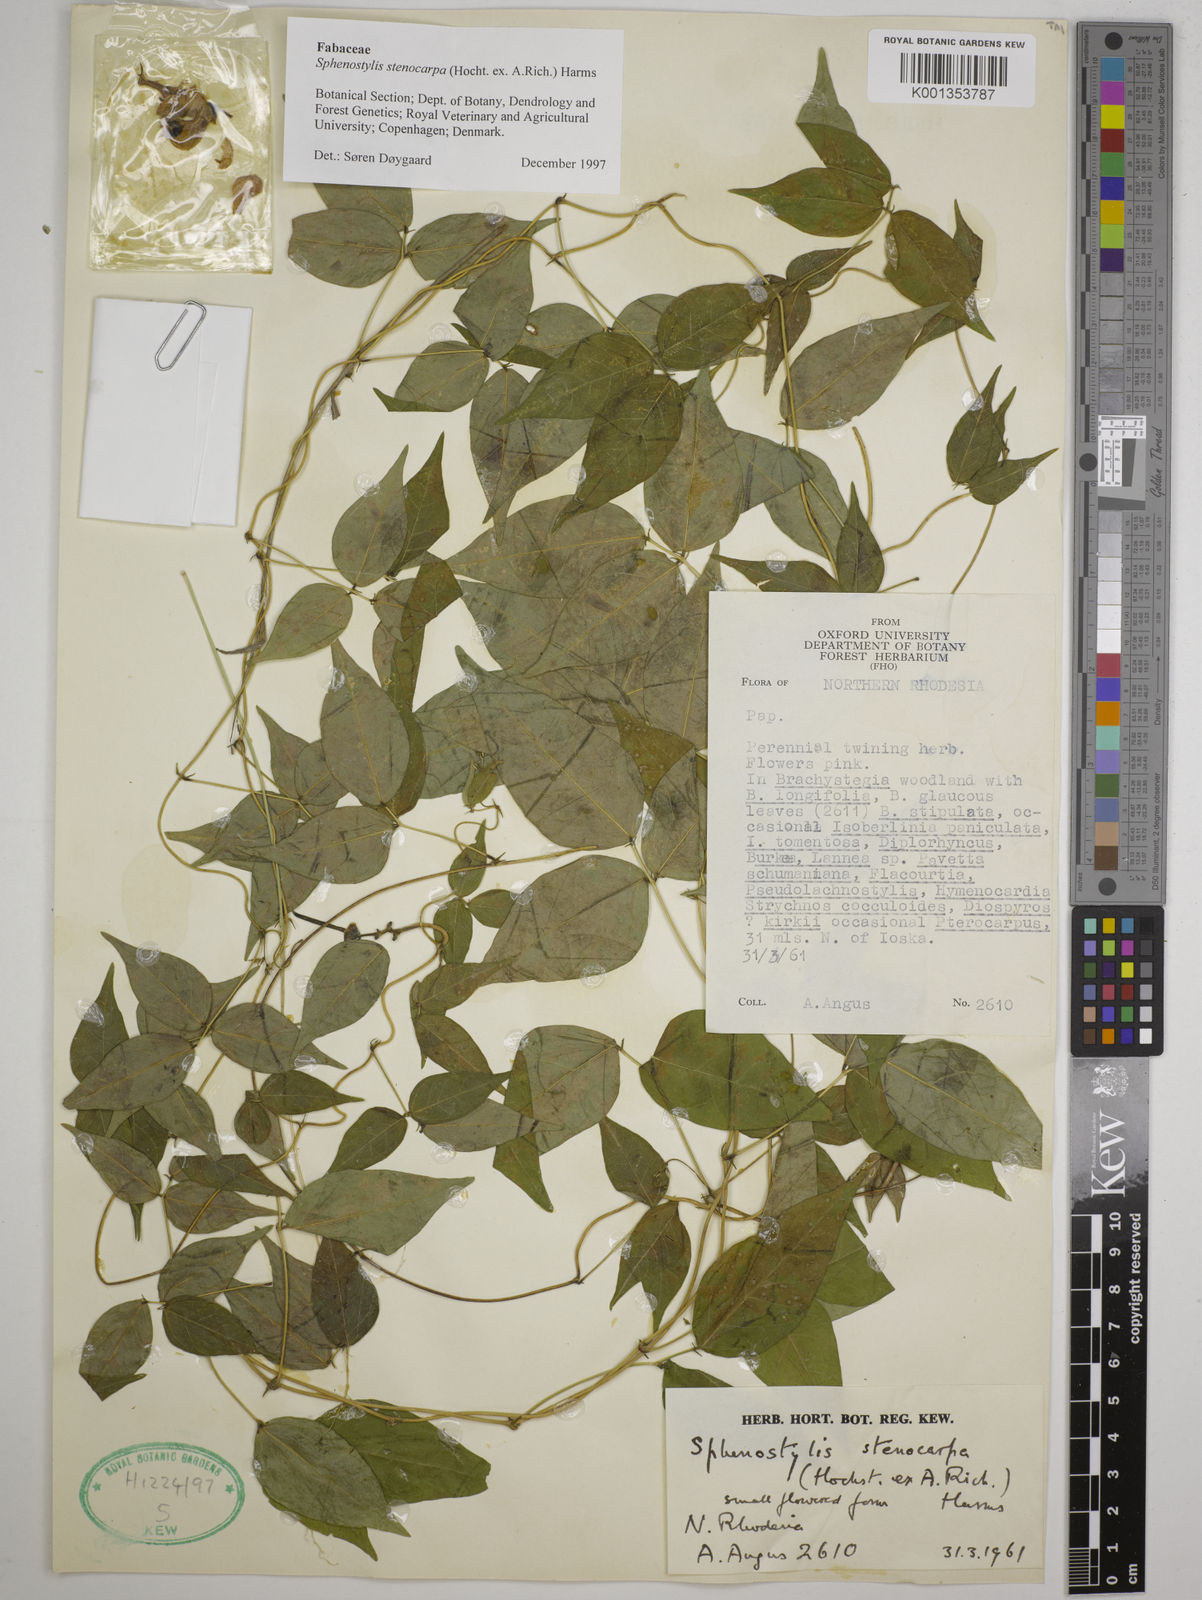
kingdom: Plantae
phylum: Tracheophyta
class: Magnoliopsida
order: Fabales
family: Fabaceae
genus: Sphenostylis
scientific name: Sphenostylis stenocarpa
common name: Yam-pea
